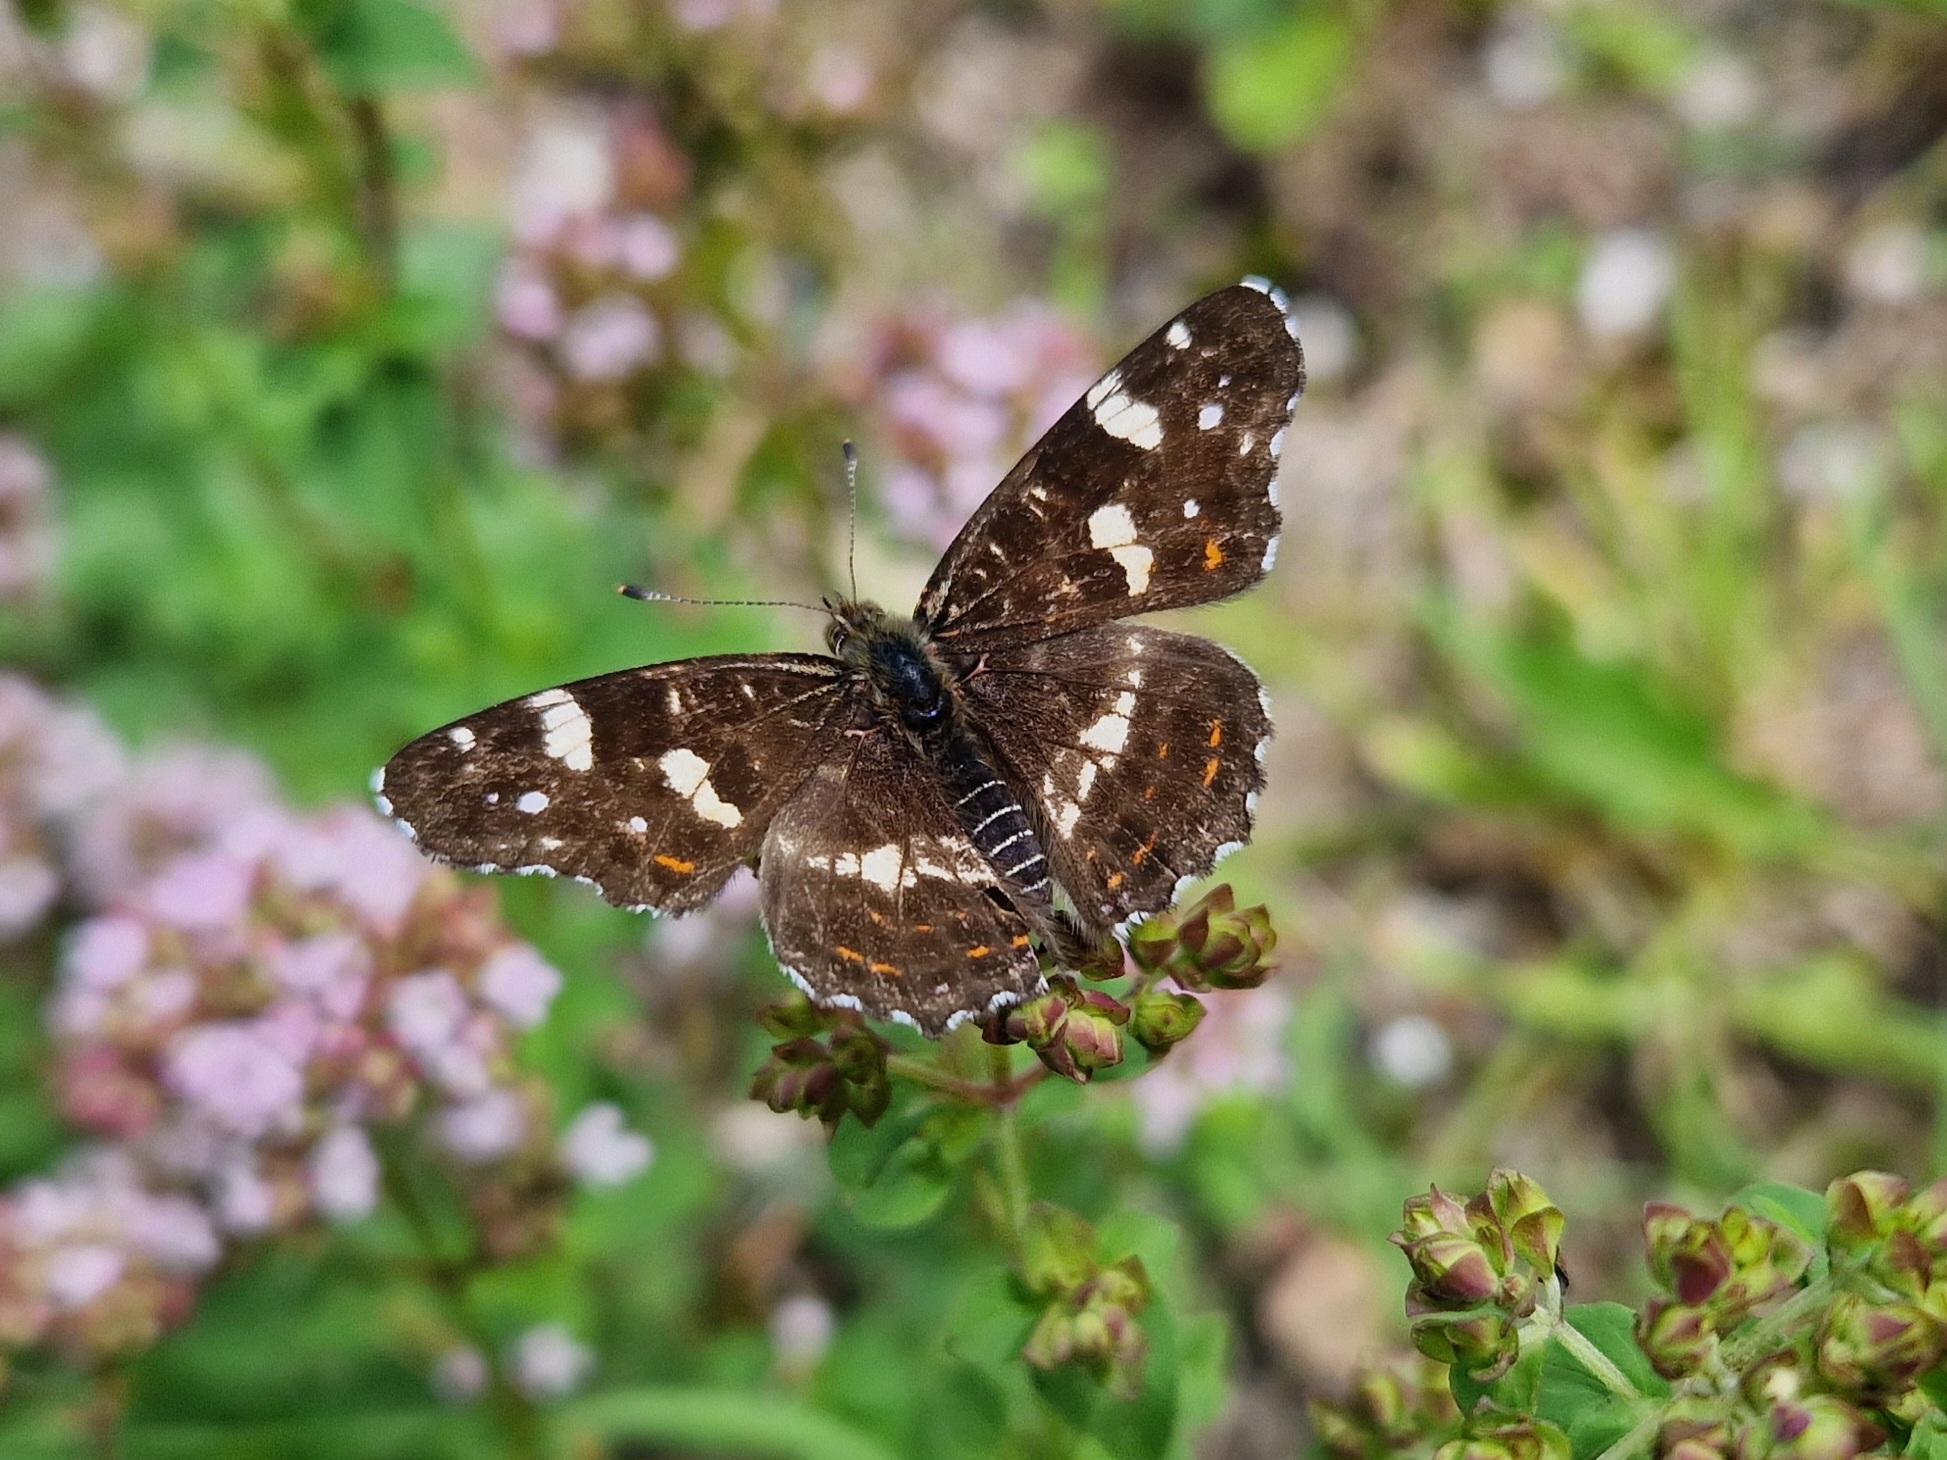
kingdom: Animalia
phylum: Arthropoda
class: Insecta
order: Lepidoptera
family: Nymphalidae
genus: Araschnia
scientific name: Araschnia levana
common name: Nældesommerfugl
